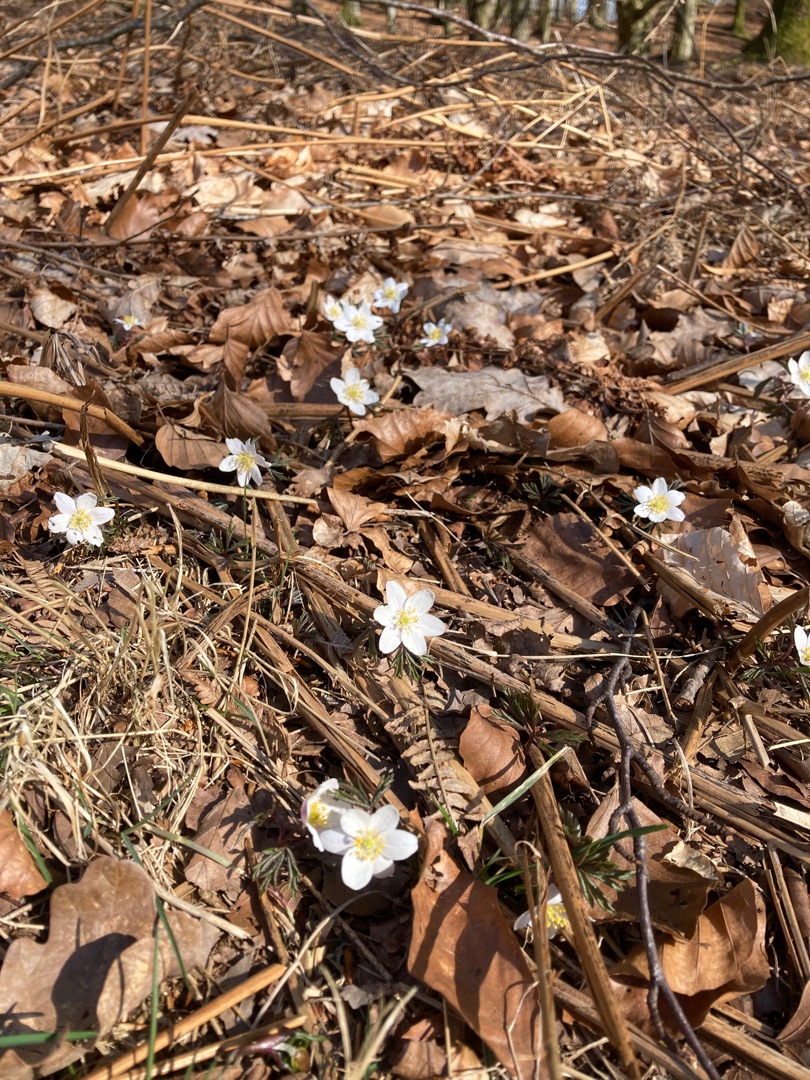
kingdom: Plantae
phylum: Tracheophyta
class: Magnoliopsida
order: Ranunculales
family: Ranunculaceae
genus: Anemone
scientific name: Anemone nemorosa
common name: Hvid anemone
